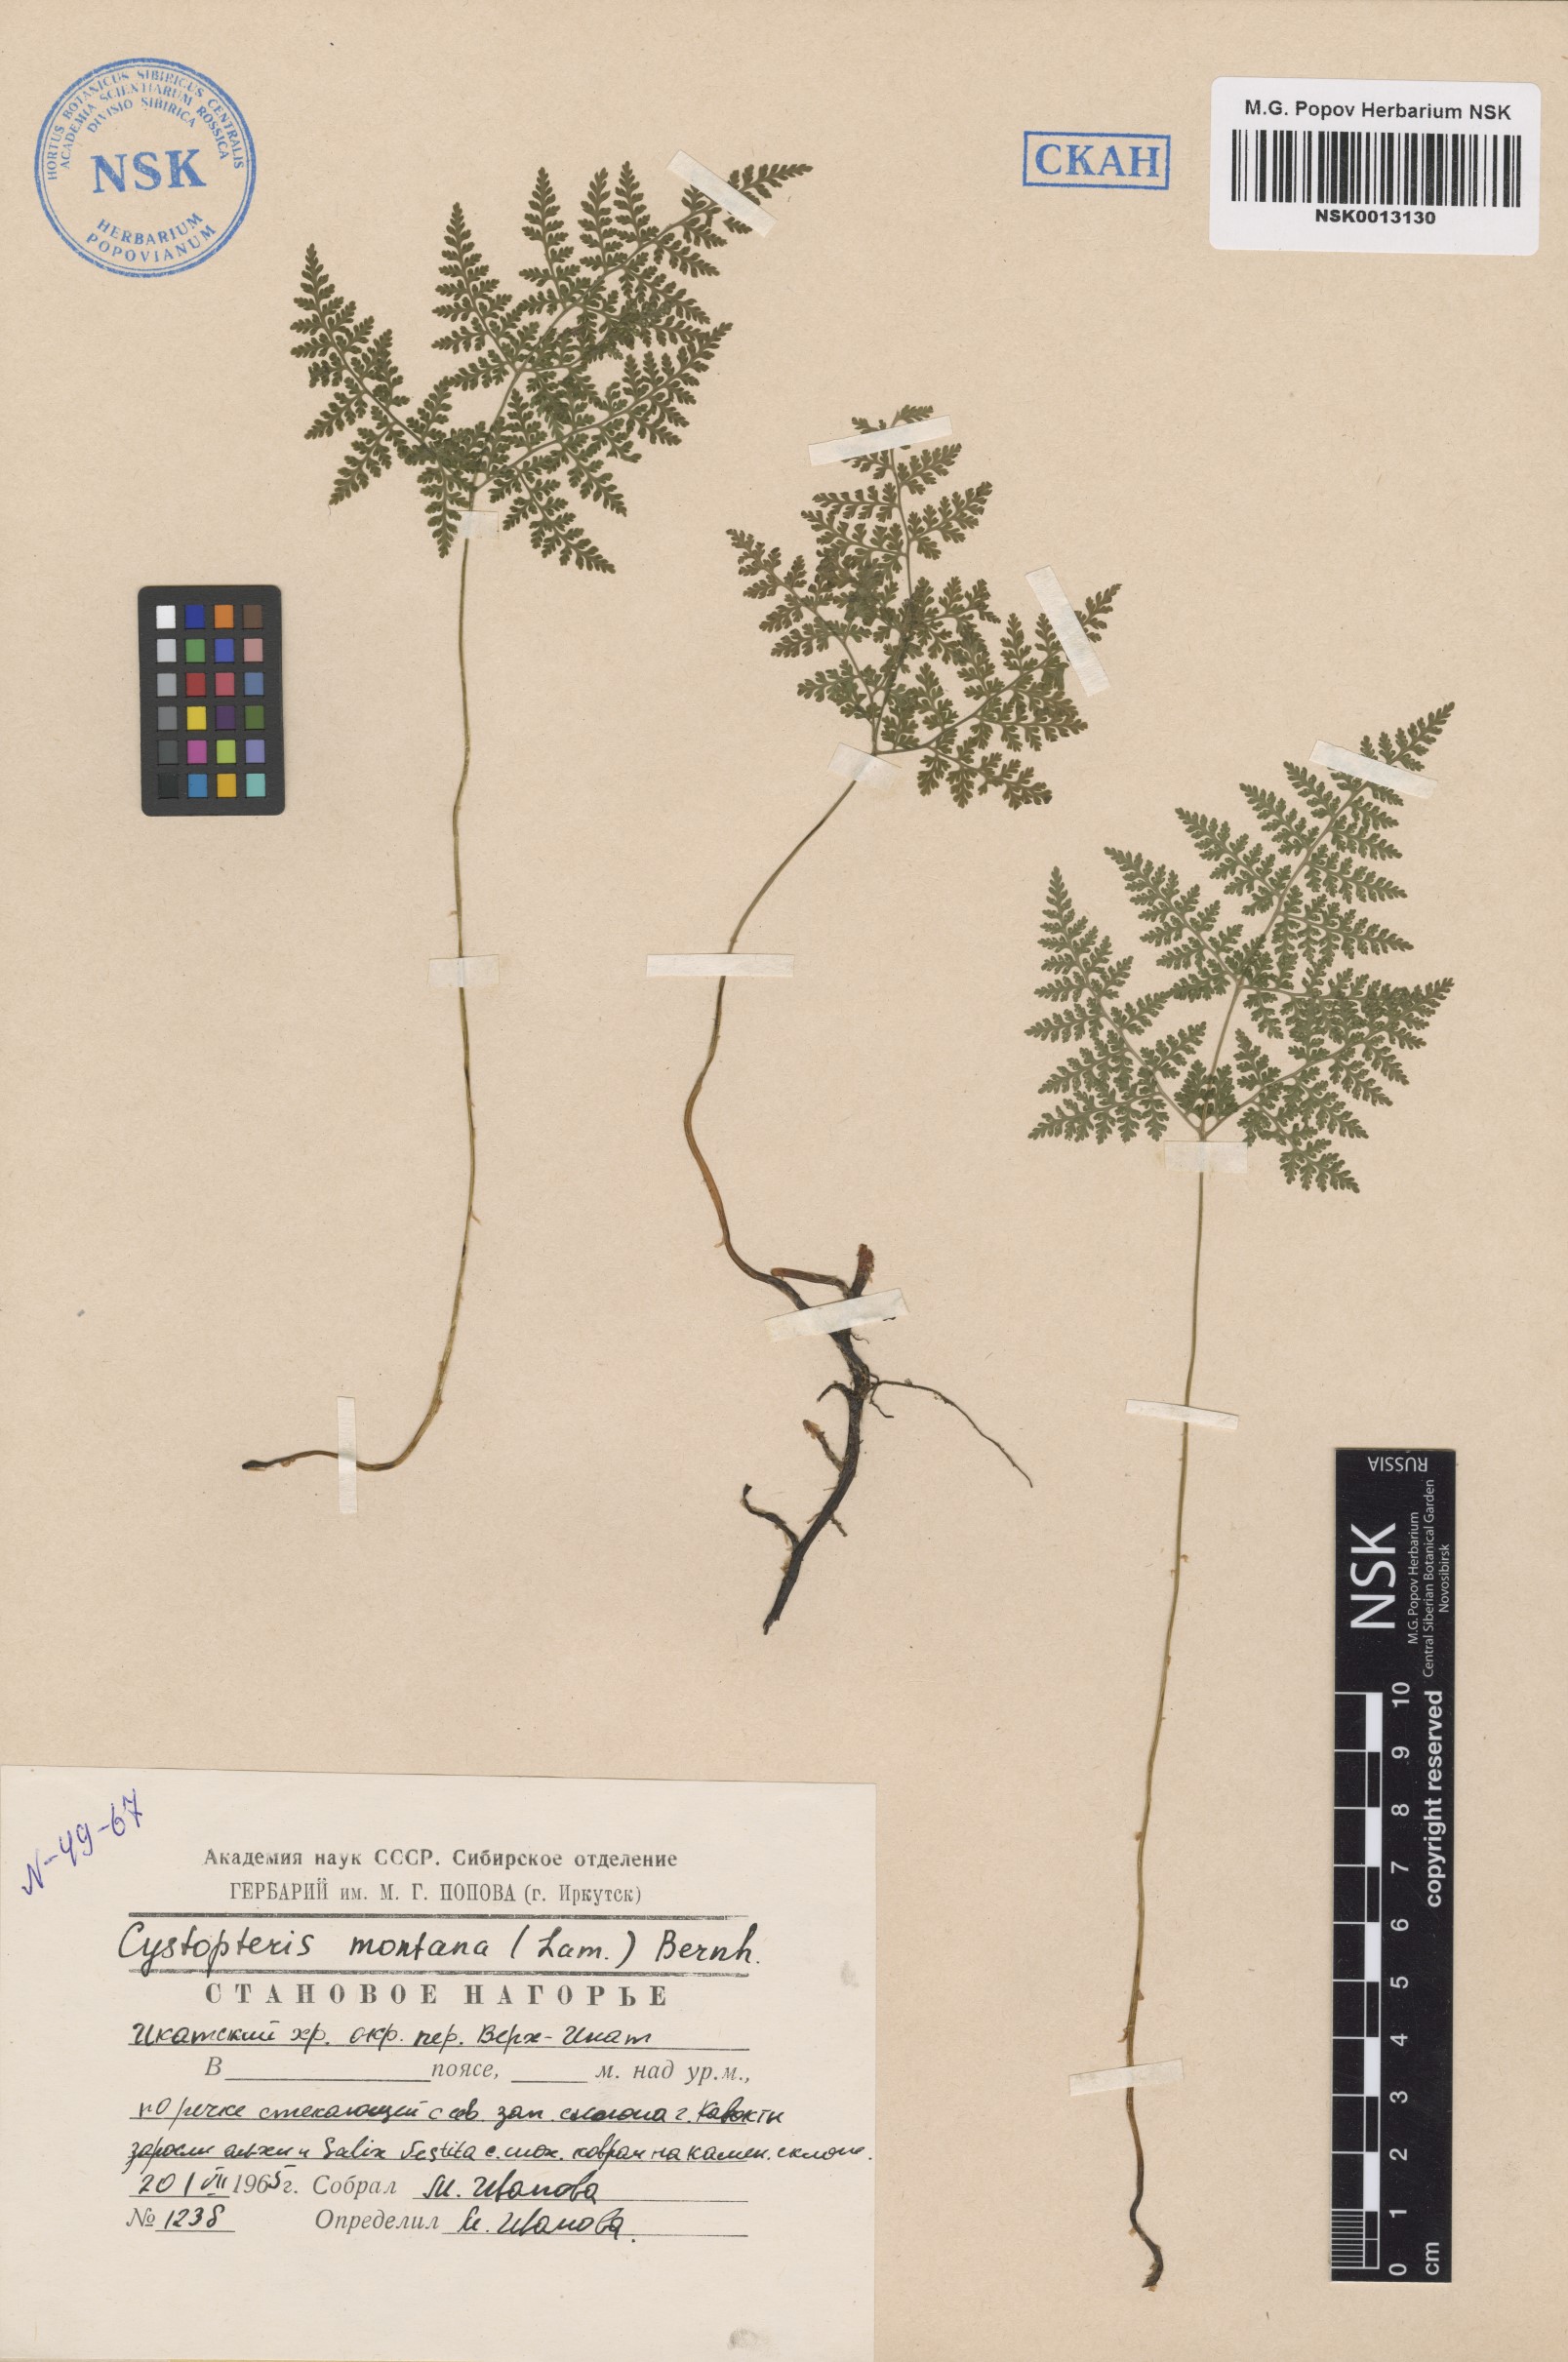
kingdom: Plantae
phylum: Tracheophyta
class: Polypodiopsida
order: Polypodiales
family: Cystopteridaceae
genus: Cystopteris
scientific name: Cystopteris montana
